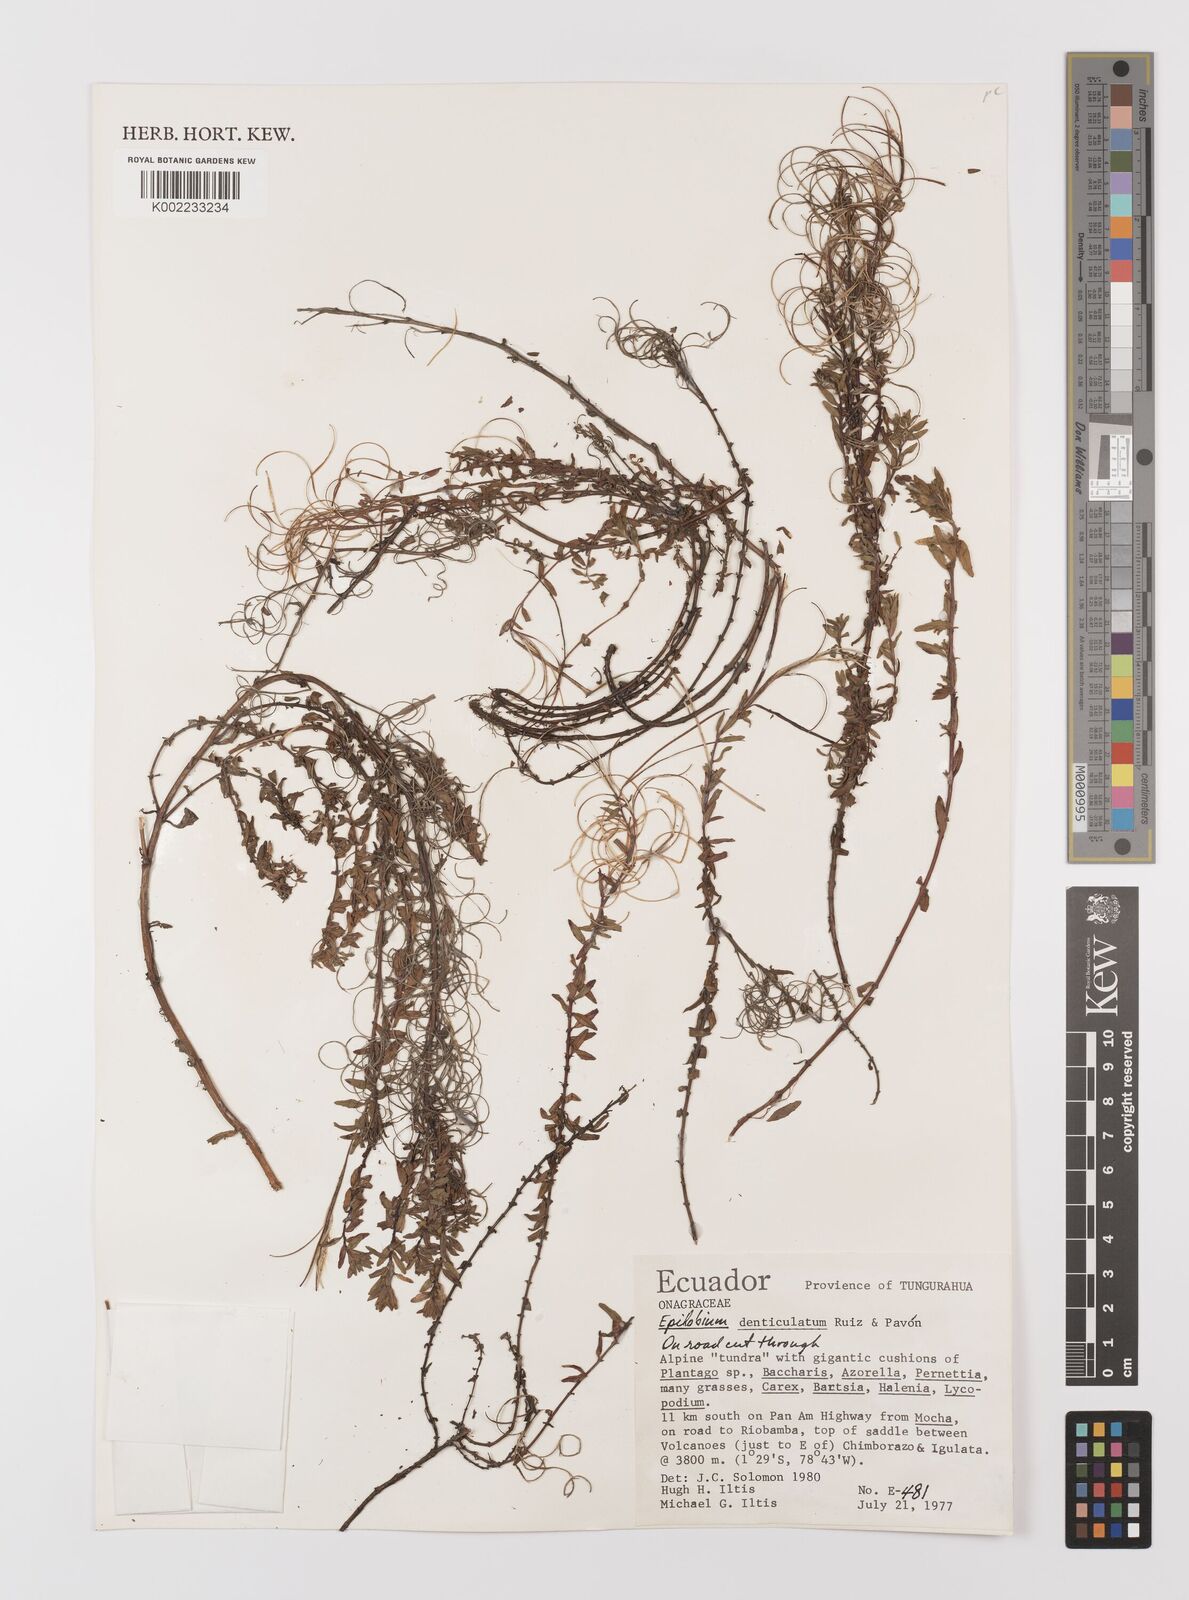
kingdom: Plantae
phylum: Tracheophyta
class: Magnoliopsida
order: Myrtales
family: Onagraceae
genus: Epilobium
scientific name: Epilobium denticulatum
